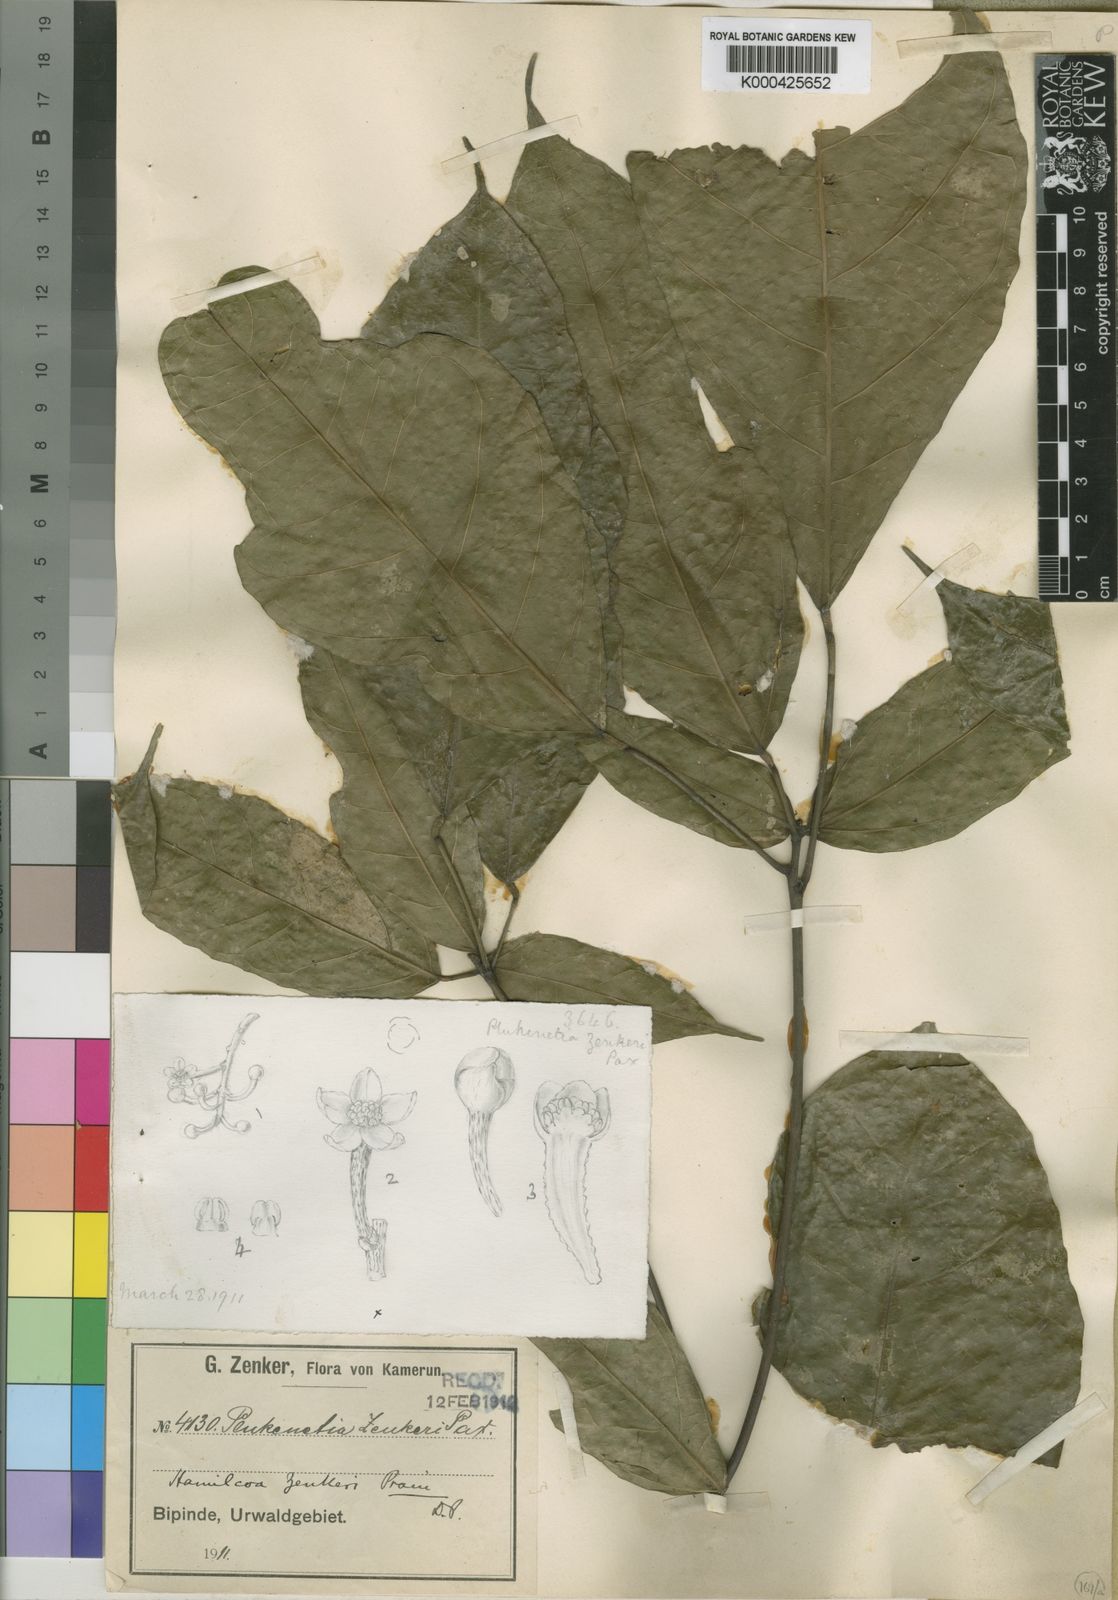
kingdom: Plantae
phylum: Tracheophyta
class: Magnoliopsida
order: Malpighiales
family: Euphorbiaceae
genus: Hamilcoa
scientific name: Hamilcoa zenkeri
